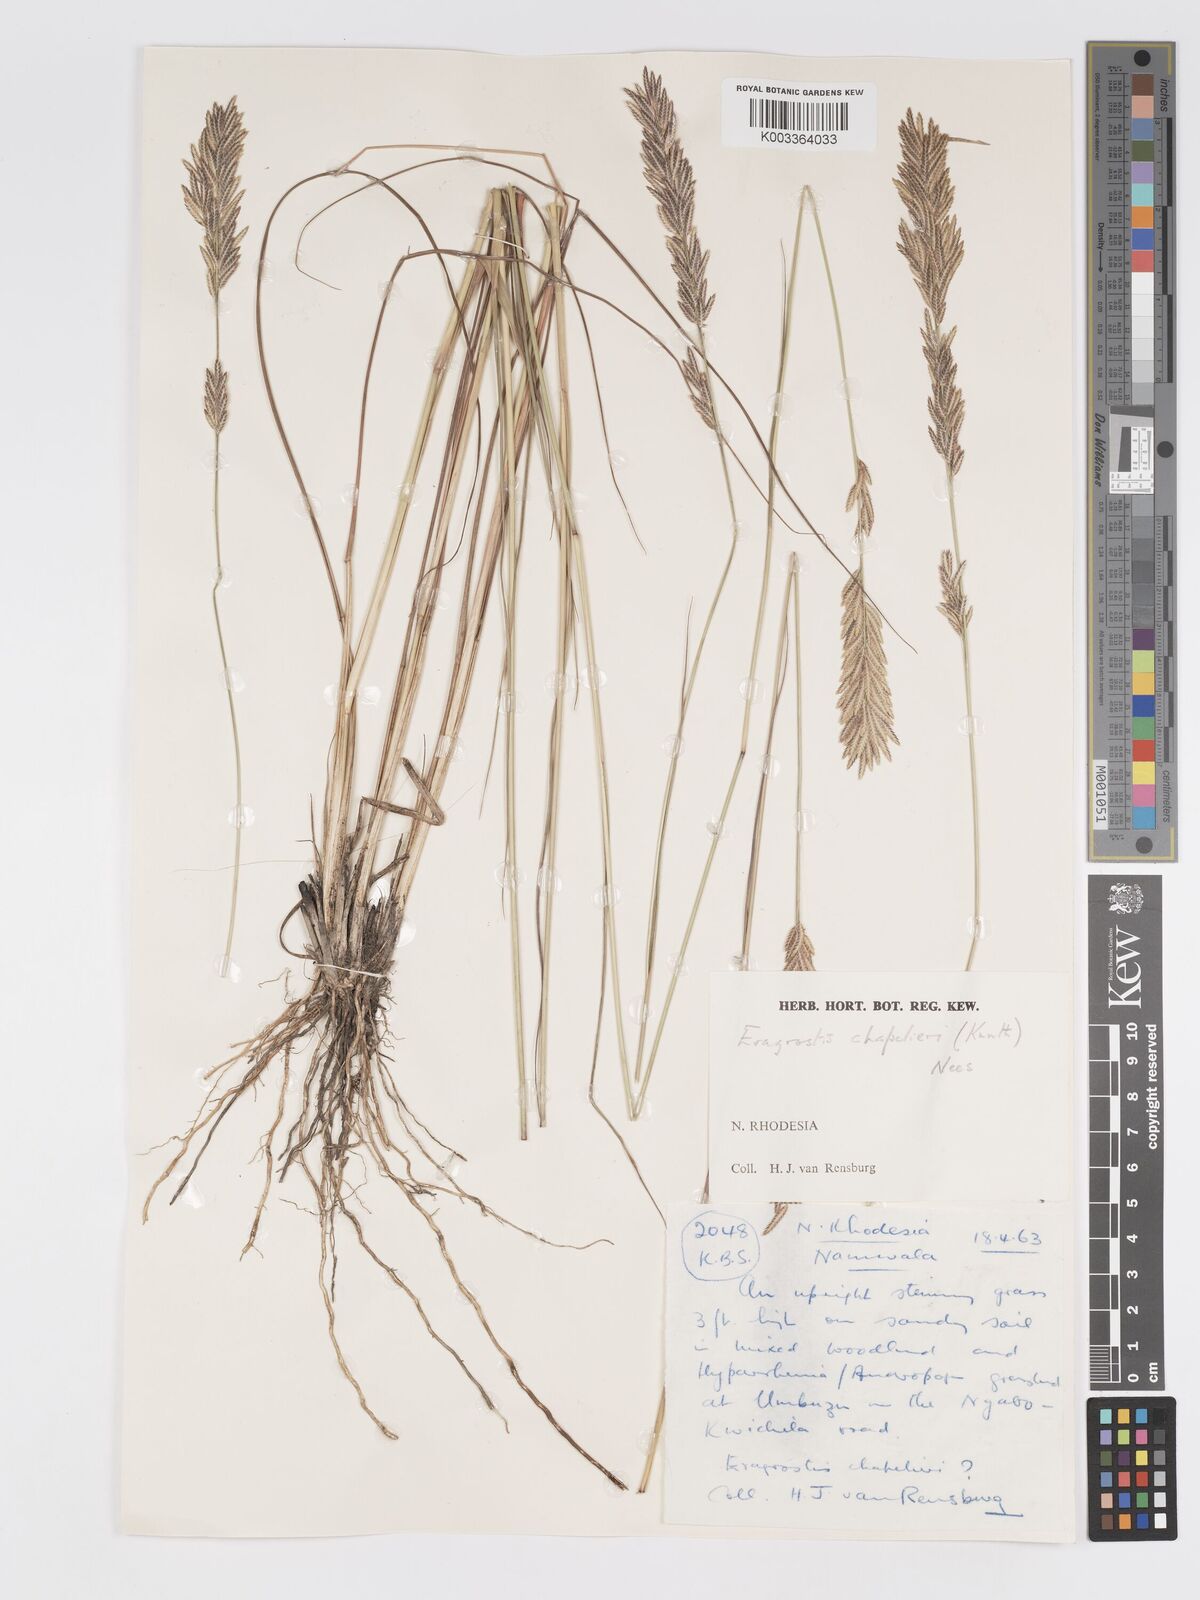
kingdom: Plantae
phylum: Tracheophyta
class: Liliopsida
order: Poales
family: Poaceae
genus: Eragrostis
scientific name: Eragrostis chapelieri
